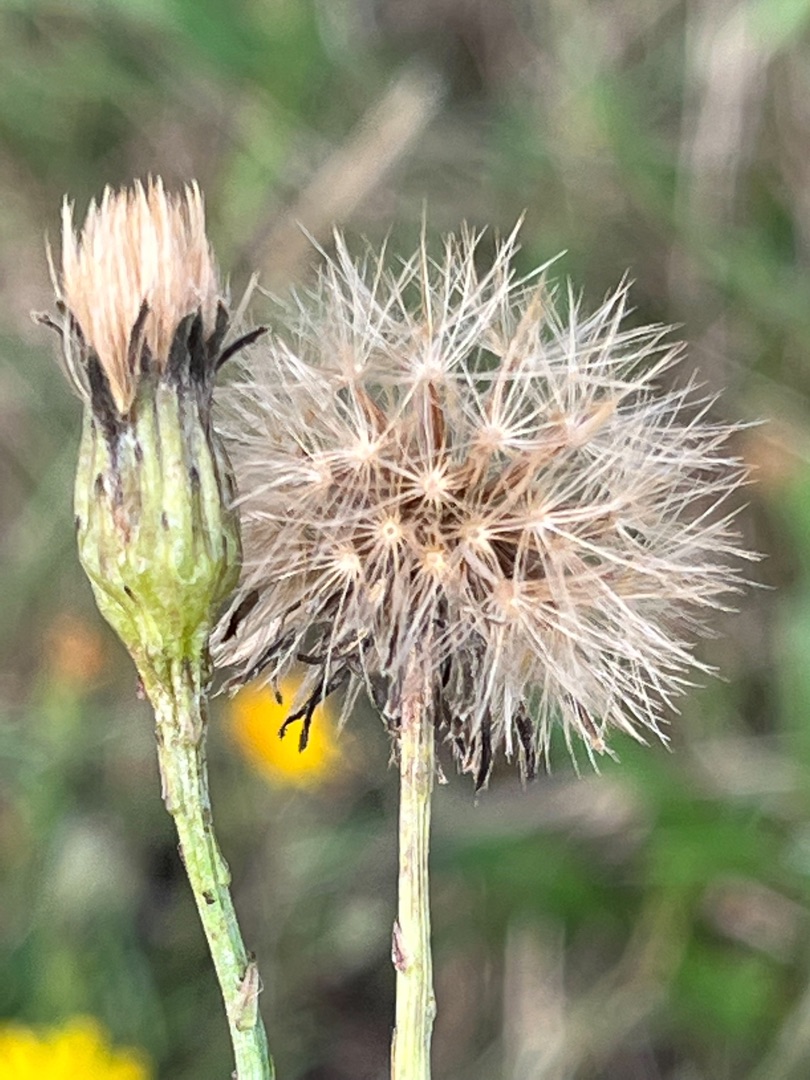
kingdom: Plantae
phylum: Tracheophyta
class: Magnoliopsida
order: Asterales
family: Asteraceae
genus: Scorzoneroides
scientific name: Scorzoneroides autumnalis
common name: Høst-borst
